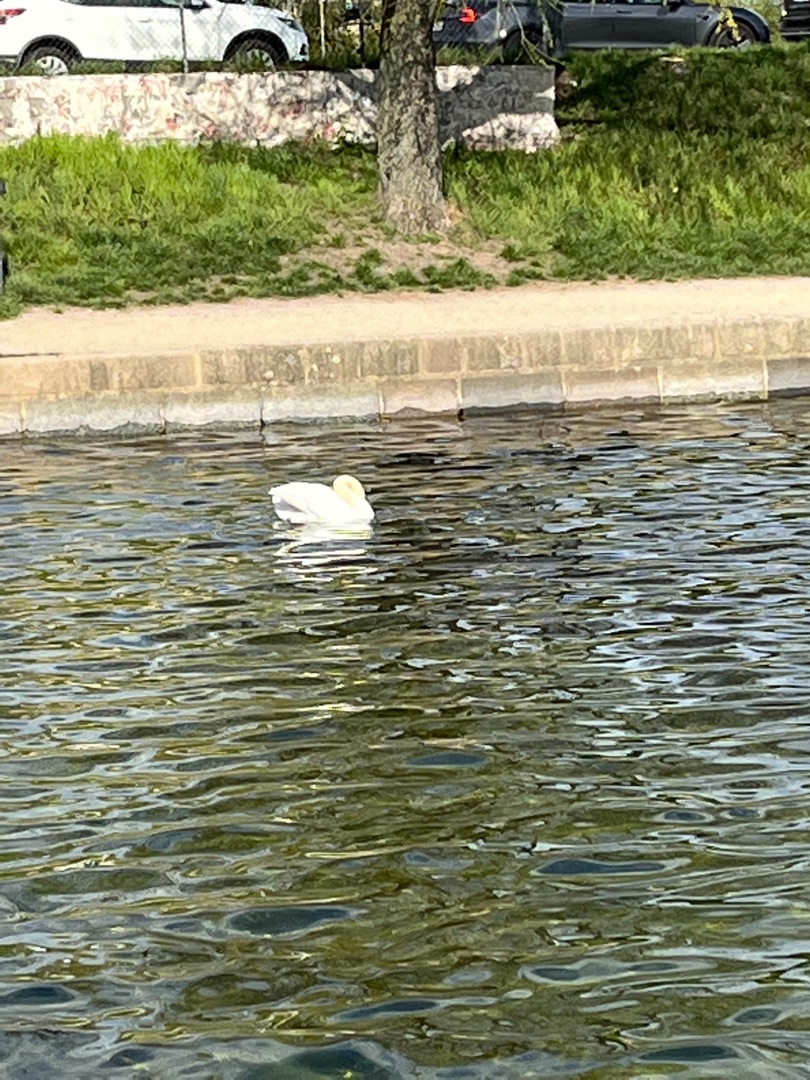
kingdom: Animalia
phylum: Chordata
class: Aves
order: Anseriformes
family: Anatidae
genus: Cygnus
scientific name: Cygnus olor
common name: Knopsvane
